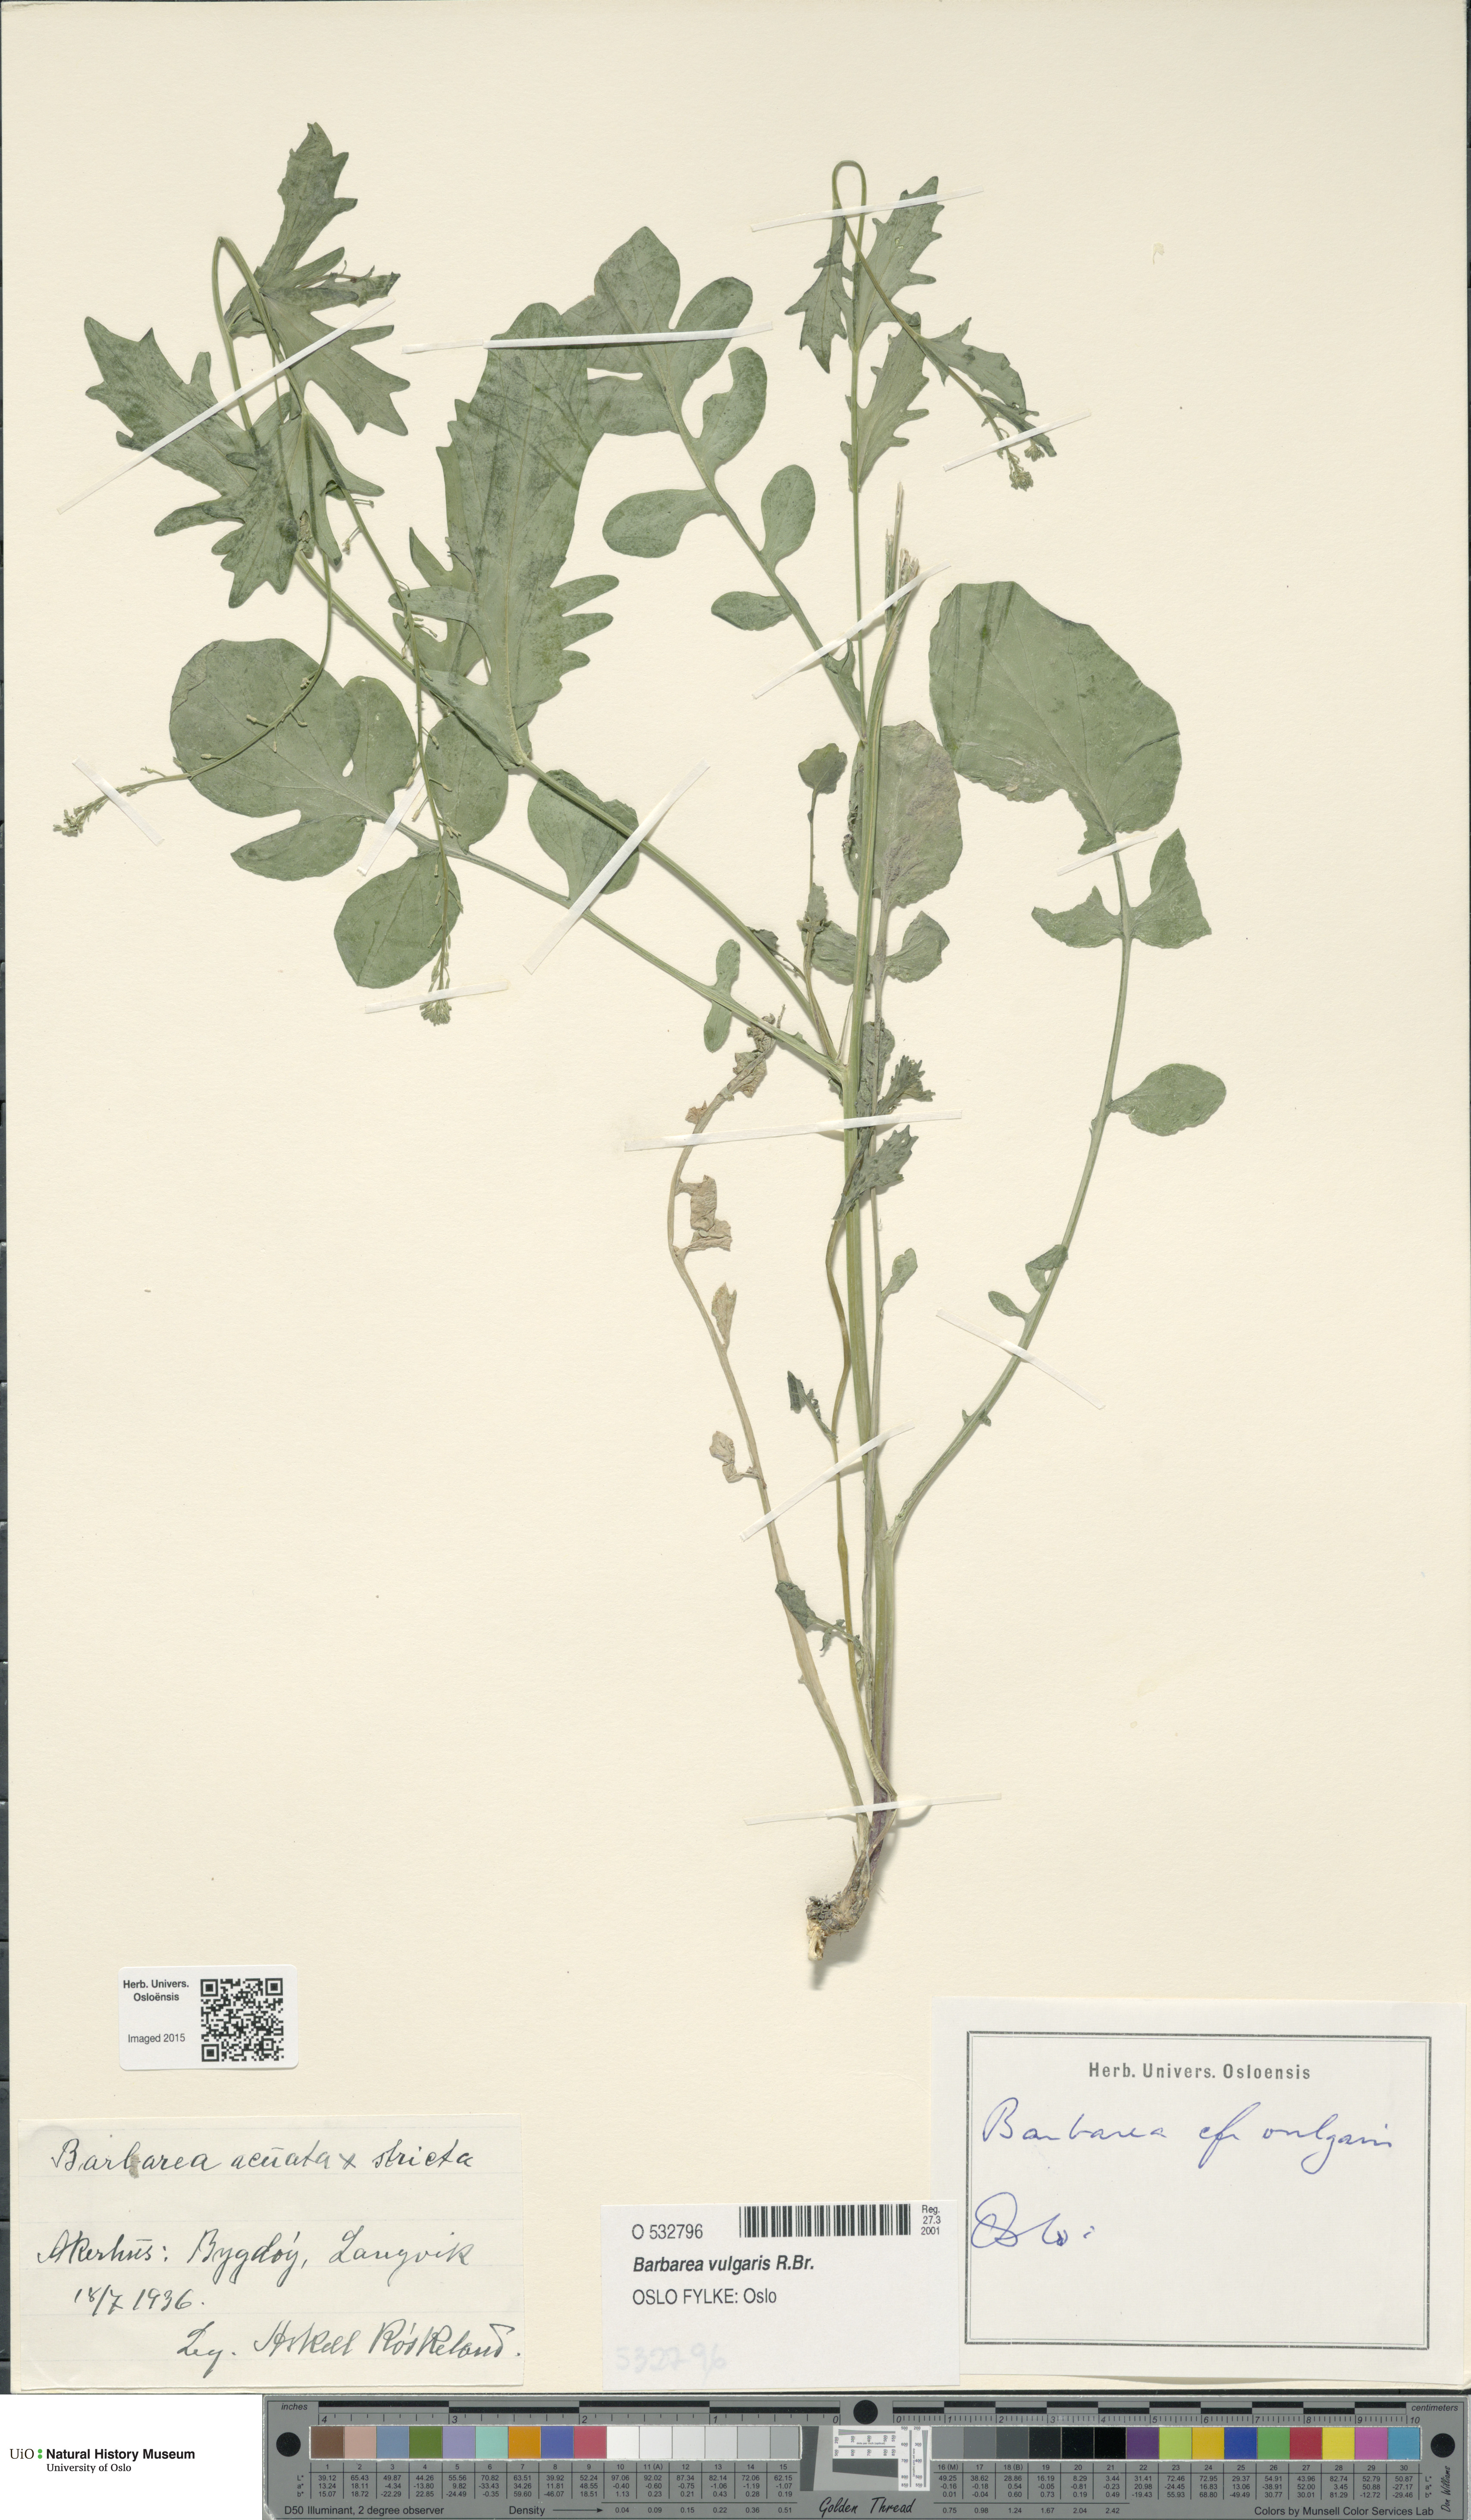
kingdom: Plantae
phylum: Tracheophyta
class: Magnoliopsida
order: Brassicales
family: Brassicaceae
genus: Barbarea
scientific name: Barbarea vulgaris
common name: Cressy-greens
